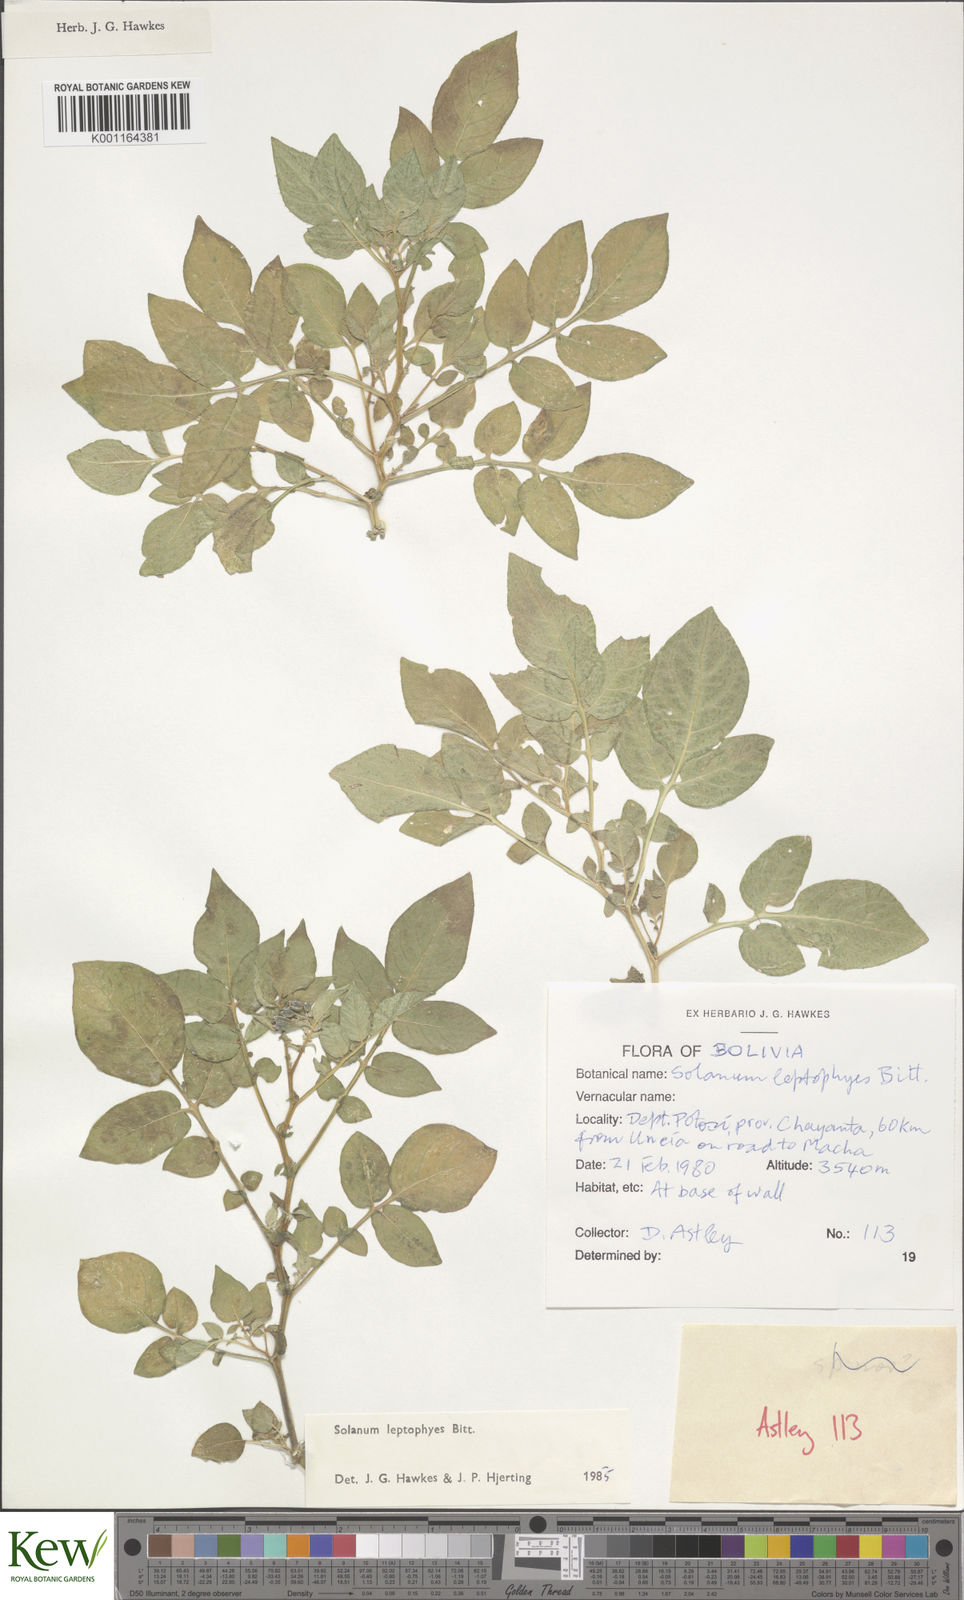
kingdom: Plantae
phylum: Tracheophyta
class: Magnoliopsida
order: Solanales
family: Solanaceae
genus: Solanum
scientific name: Solanum brevicaule
